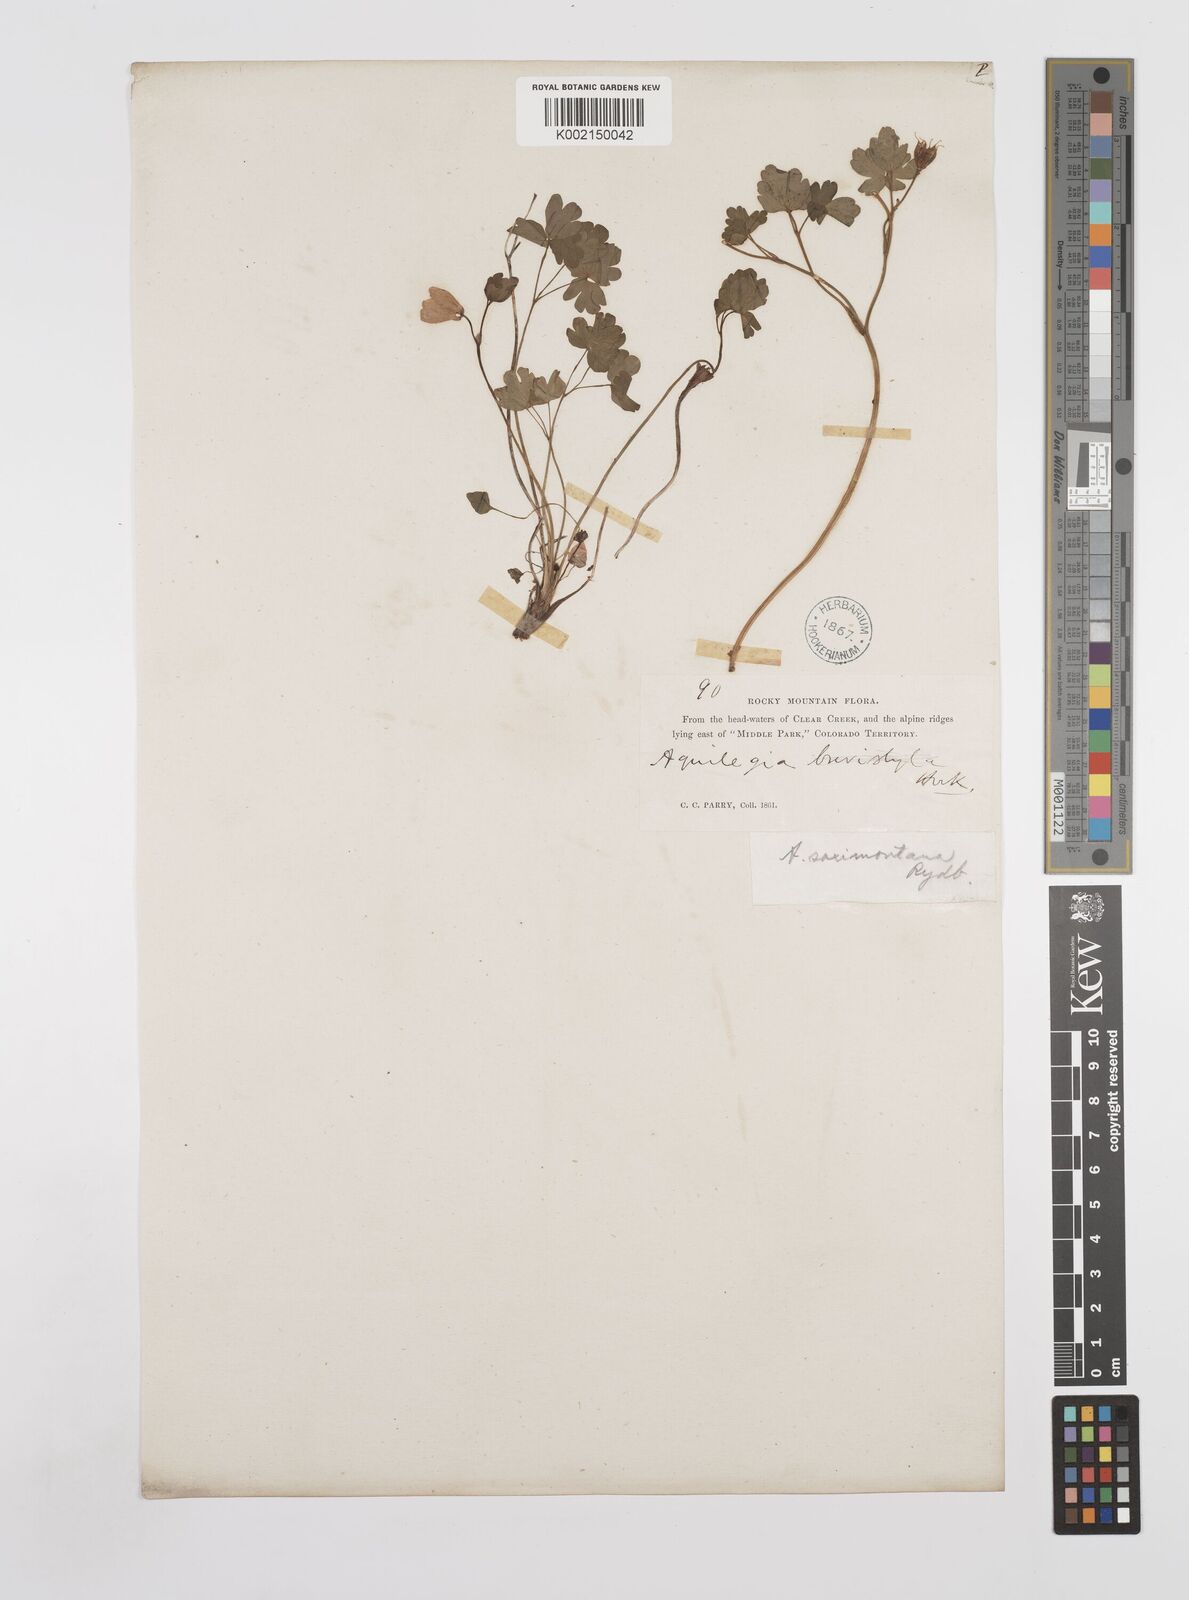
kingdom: Plantae
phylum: Tracheophyta
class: Magnoliopsida
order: Ranunculales
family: Ranunculaceae
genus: Aquilegia
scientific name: Aquilegia saximontana
